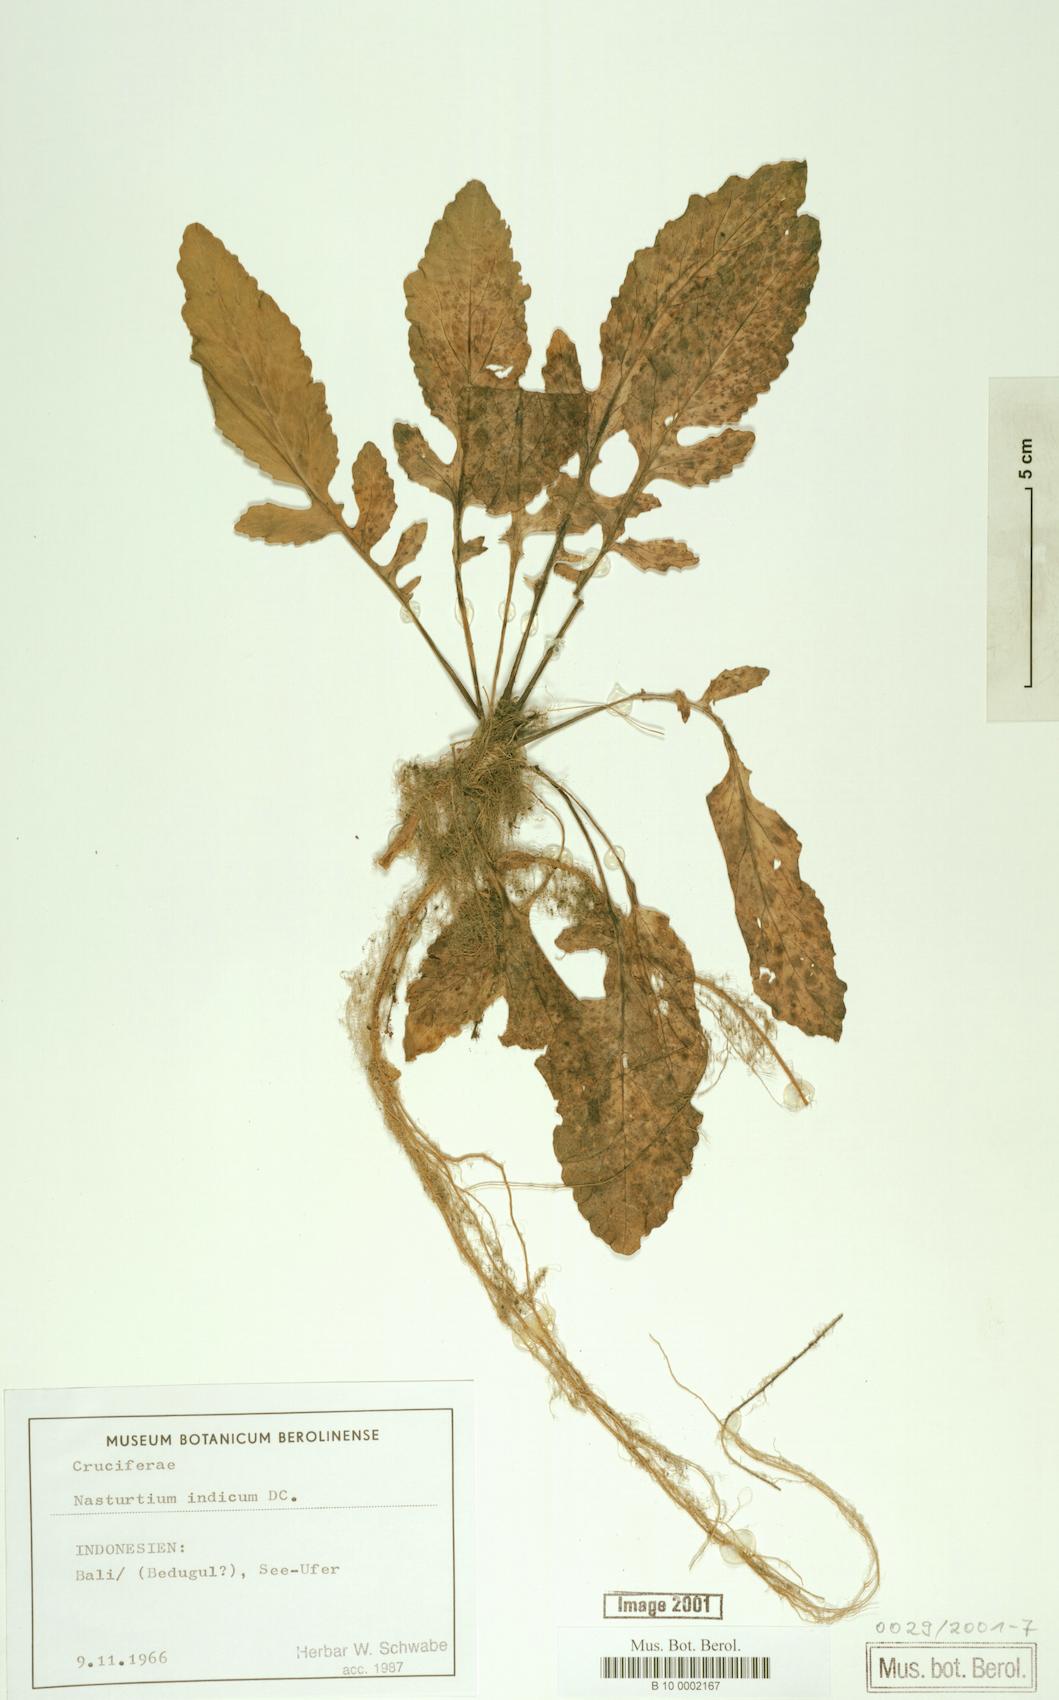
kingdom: Plantae
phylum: Tracheophyta
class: Magnoliopsida
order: Brassicales
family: Brassicaceae
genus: Rorippa
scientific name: Rorippa indica
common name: Variableleaf yellowcress
